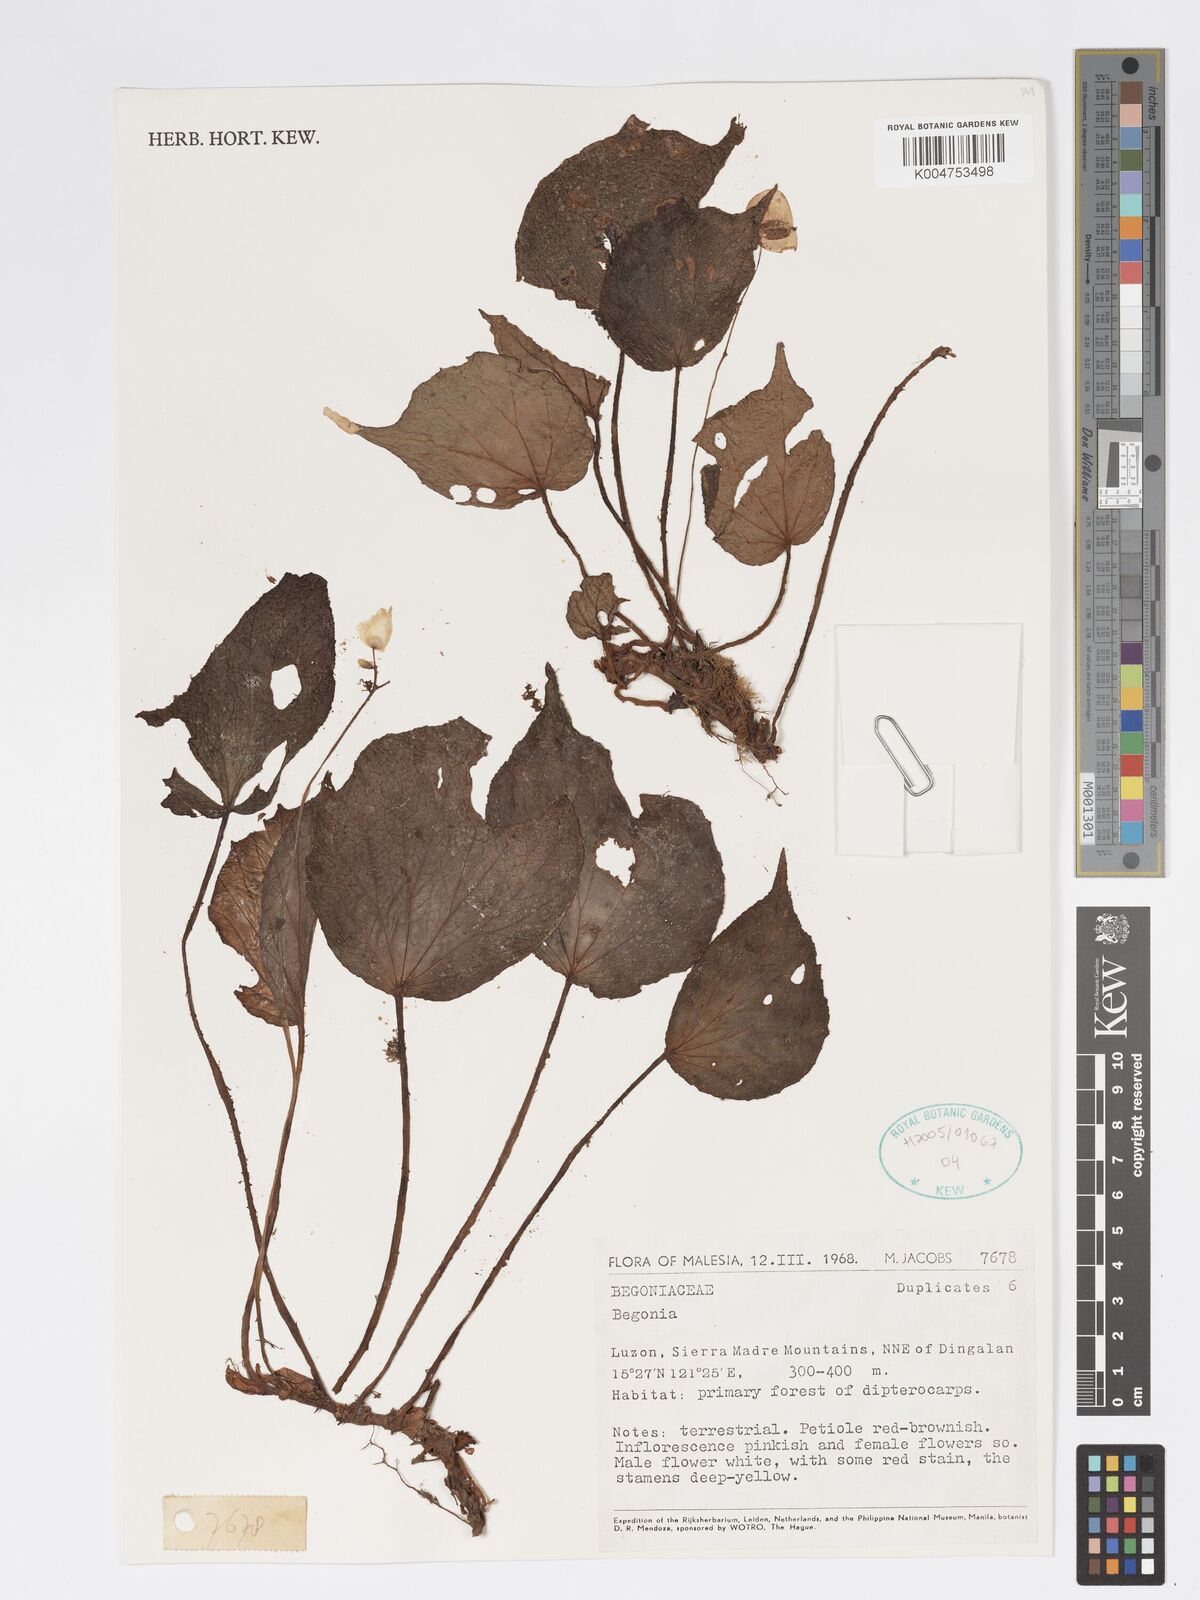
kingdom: Plantae
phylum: Tracheophyta
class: Magnoliopsida
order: Cucurbitales
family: Begoniaceae
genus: Begonia
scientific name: Begonia
